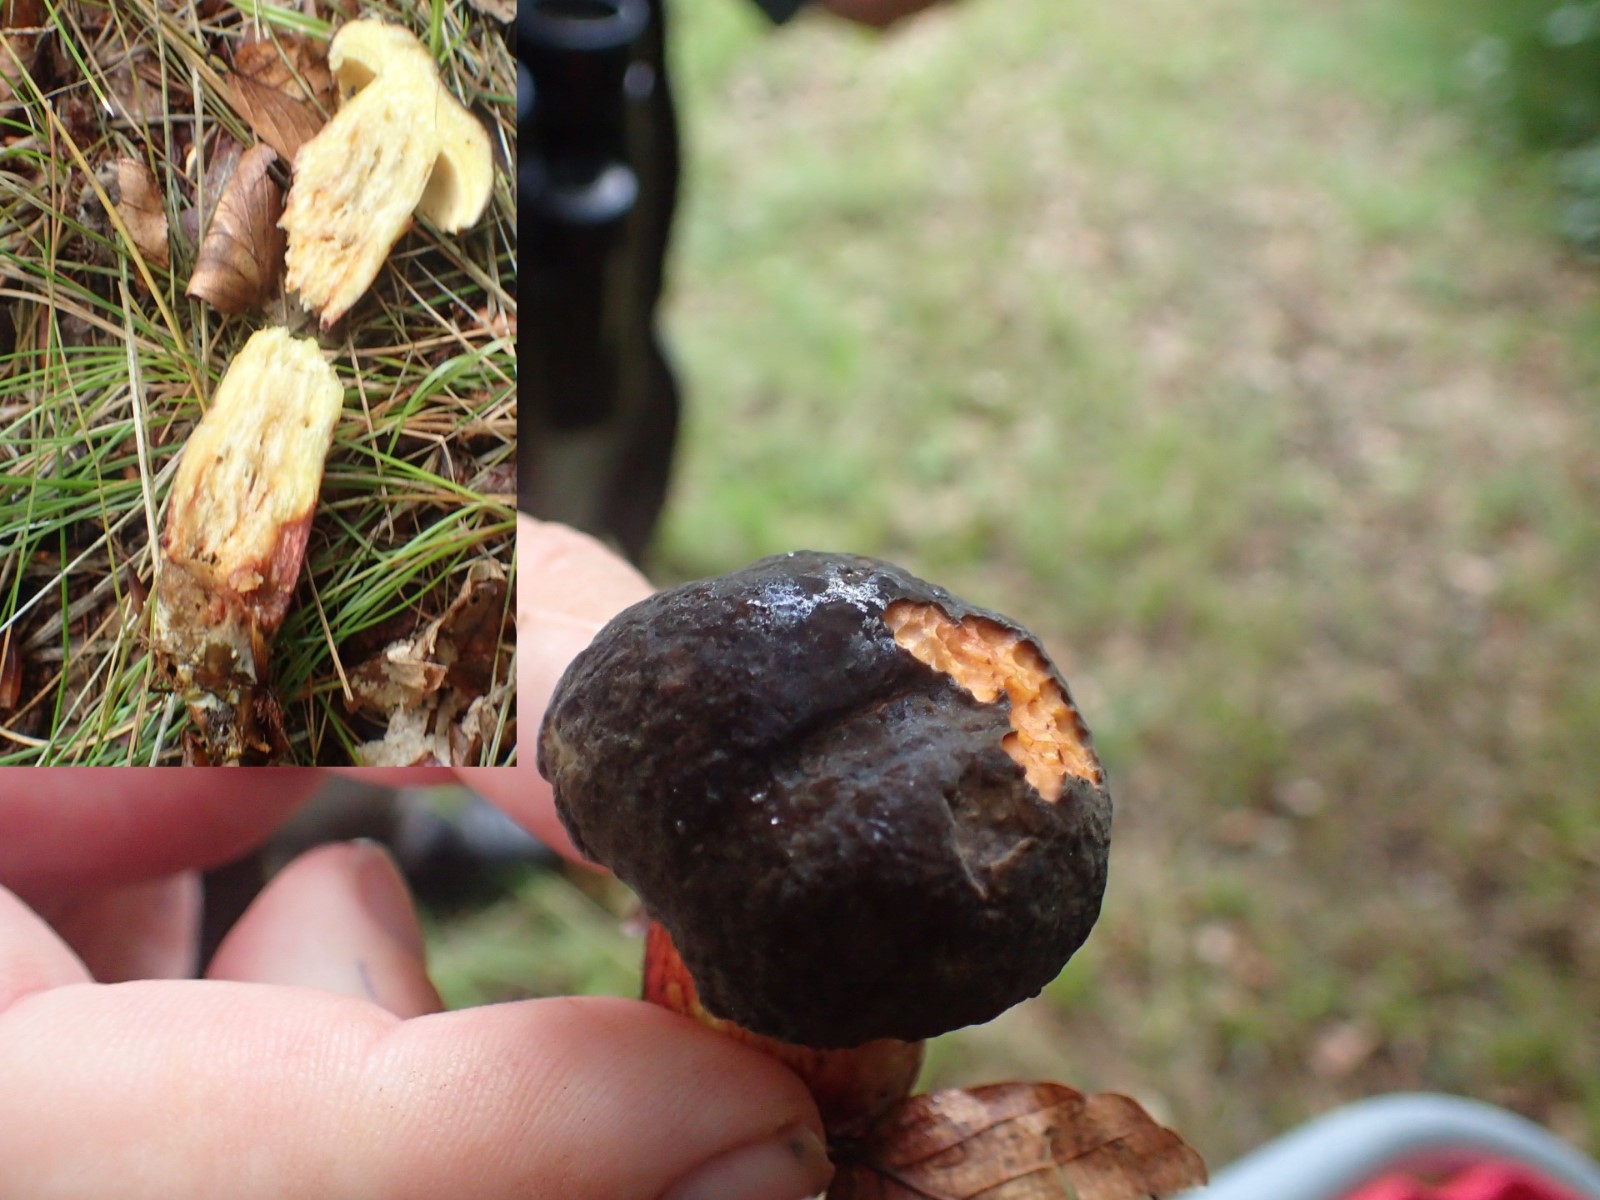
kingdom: Fungi
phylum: Basidiomycota
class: Agaricomycetes
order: Boletales
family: Boletaceae
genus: Xerocomellus
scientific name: Xerocomellus pruinatus
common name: dugget rørhat
